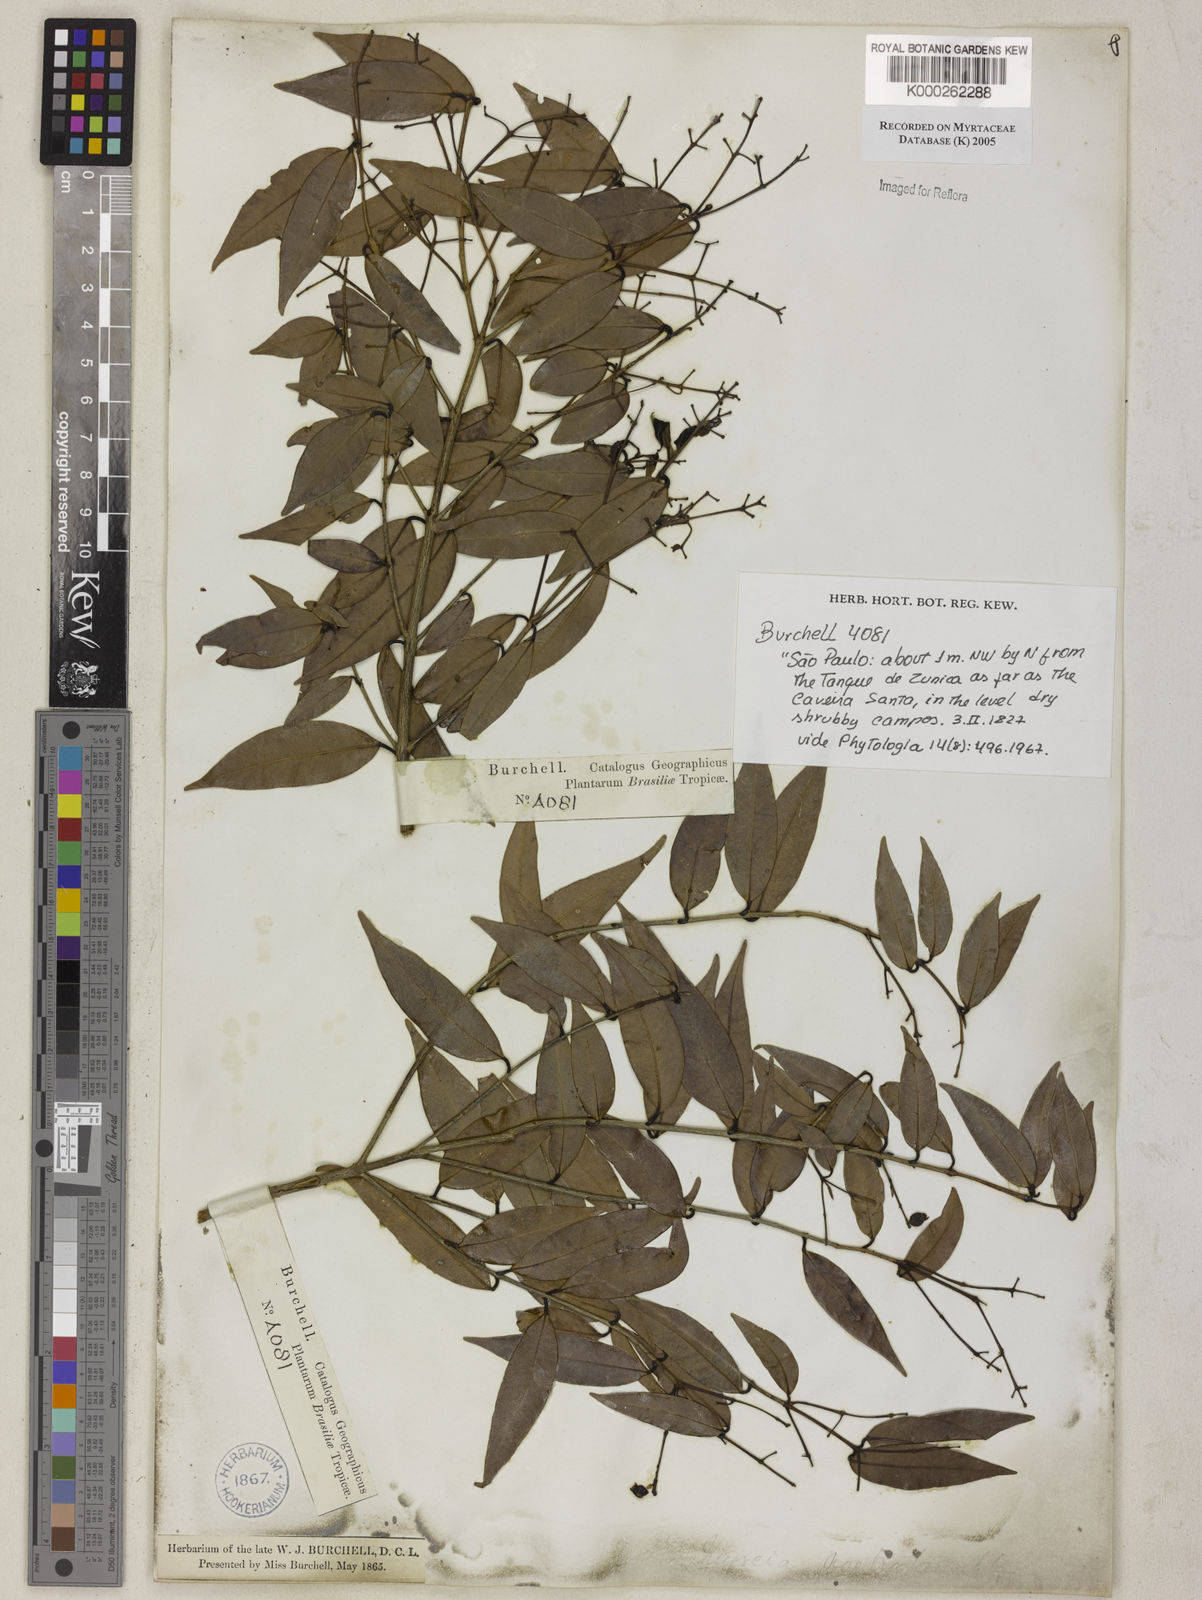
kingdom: Plantae
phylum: Tracheophyta
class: Magnoliopsida
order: Myrtales
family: Myrtaceae
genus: Myrcia
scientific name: Myrcia splendens
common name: Surinam cherry
